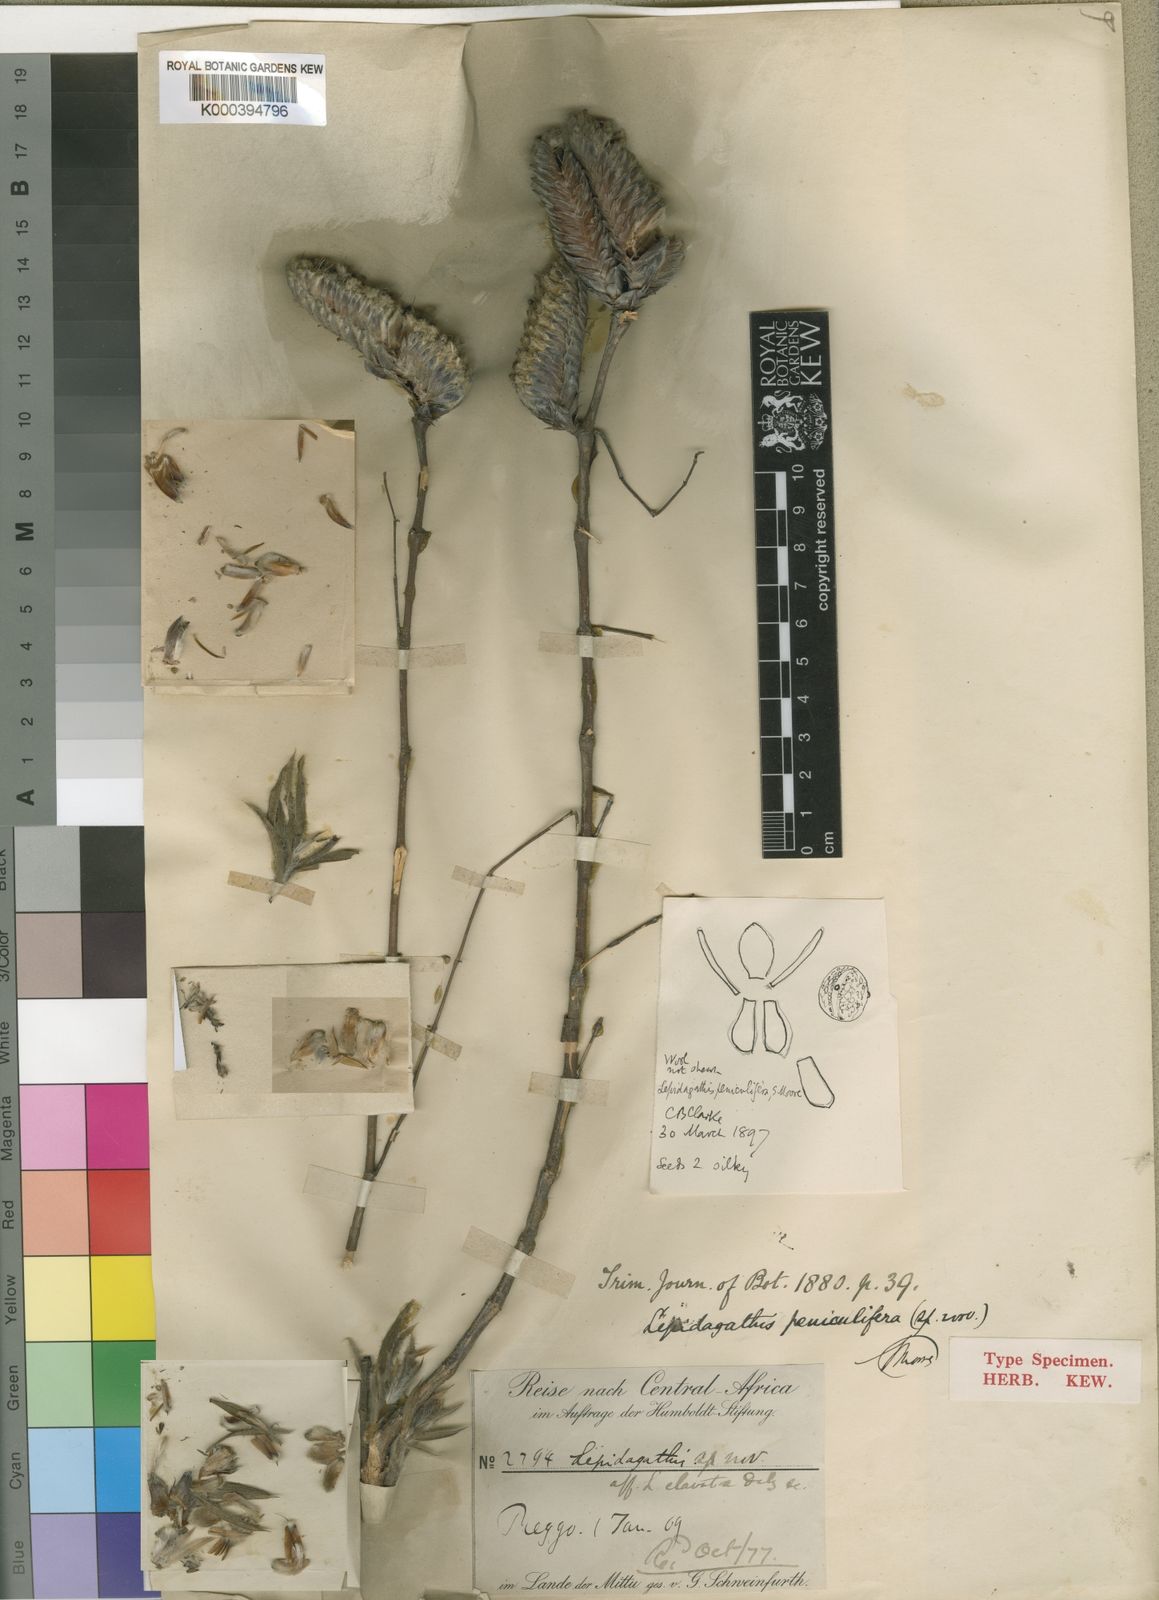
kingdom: Plantae
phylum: Tracheophyta
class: Magnoliopsida
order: Lamiales
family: Acanthaceae
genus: Lepidagathis
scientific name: Lepidagathis
